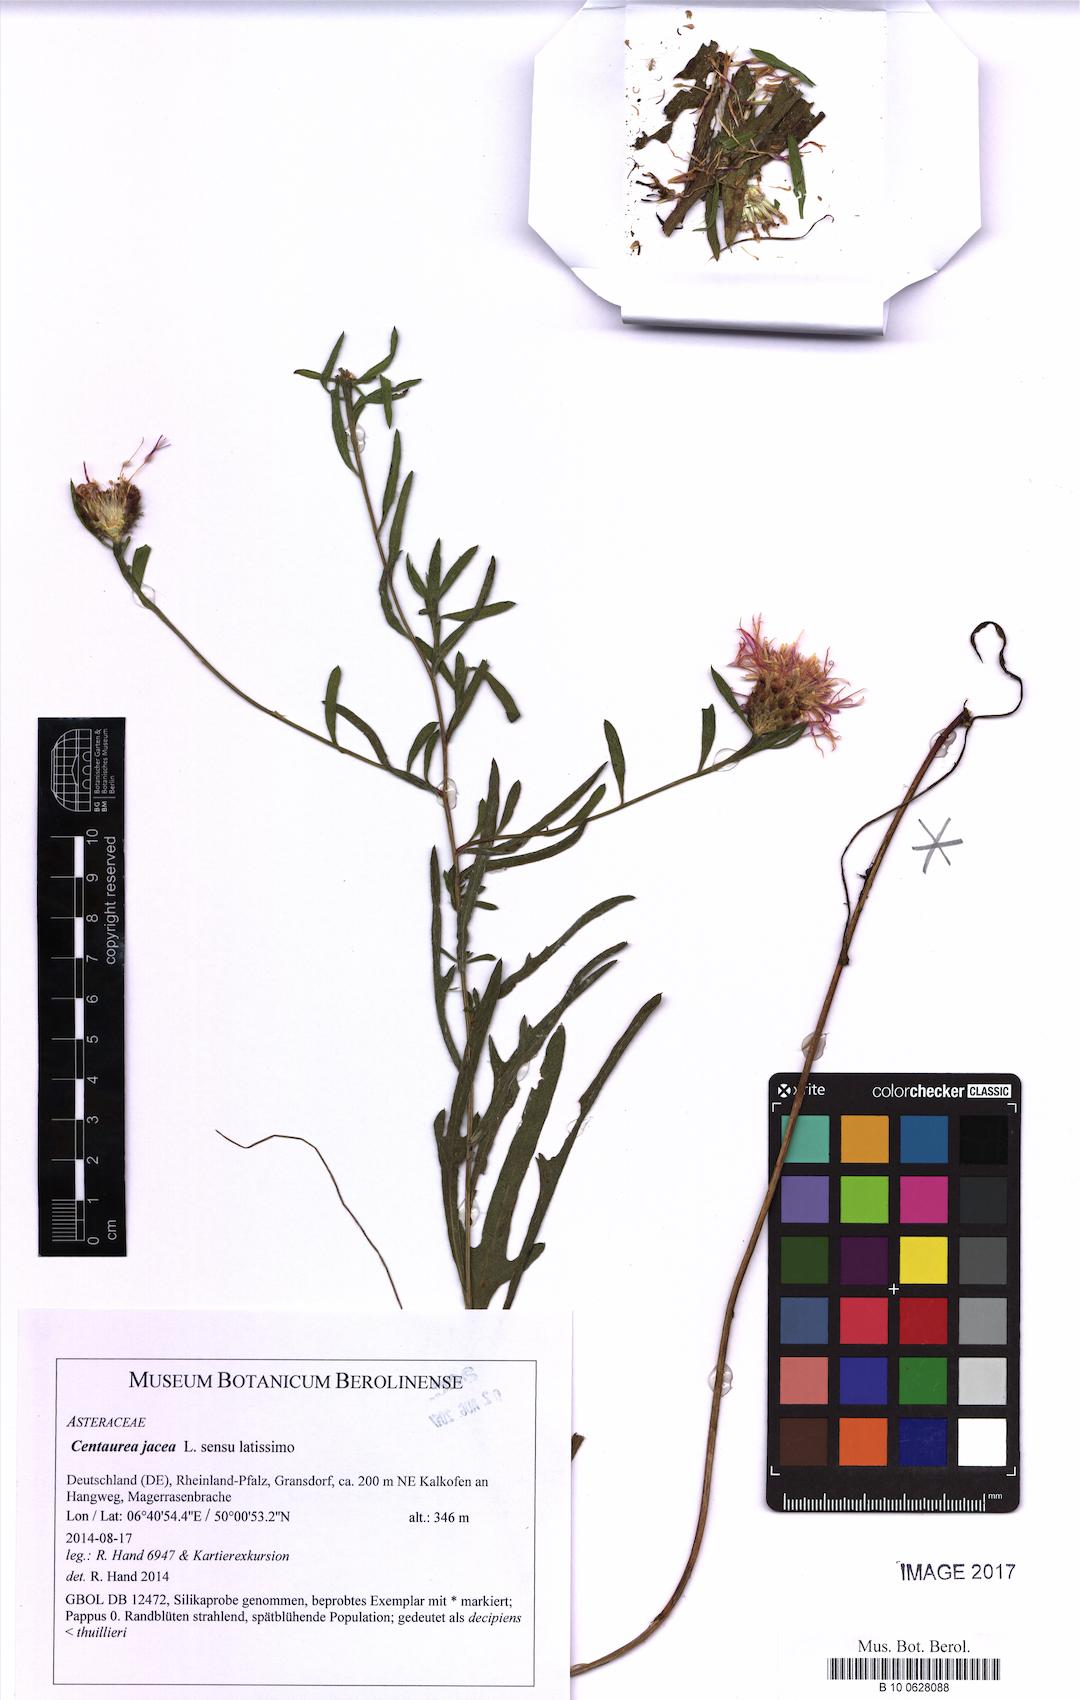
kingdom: Plantae
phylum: Tracheophyta
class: Magnoliopsida
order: Asterales
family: Asteraceae
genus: Centaurea
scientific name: Centaurea jacea
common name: Brown knapweed
